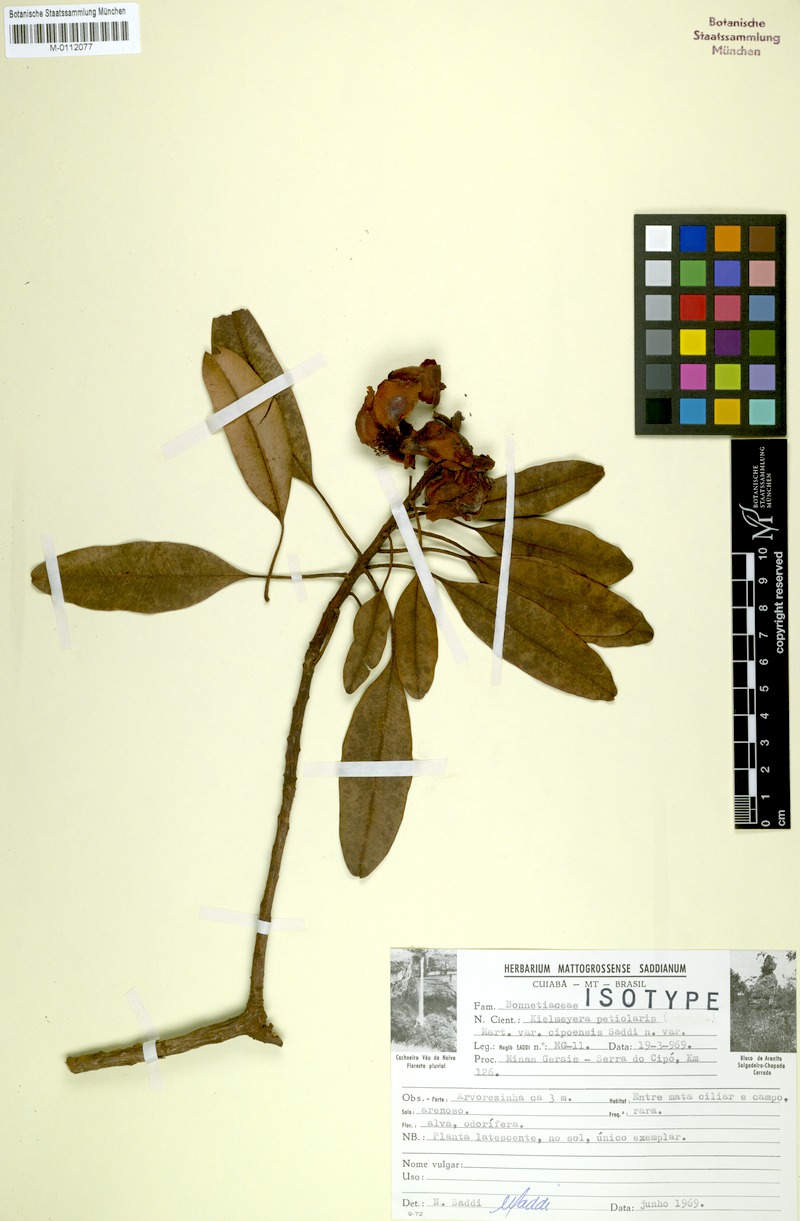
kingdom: Plantae
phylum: Tracheophyta
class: Magnoliopsida
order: Malpighiales
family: Calophyllaceae
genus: Kielmeyera
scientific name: Kielmeyera petiolaris
